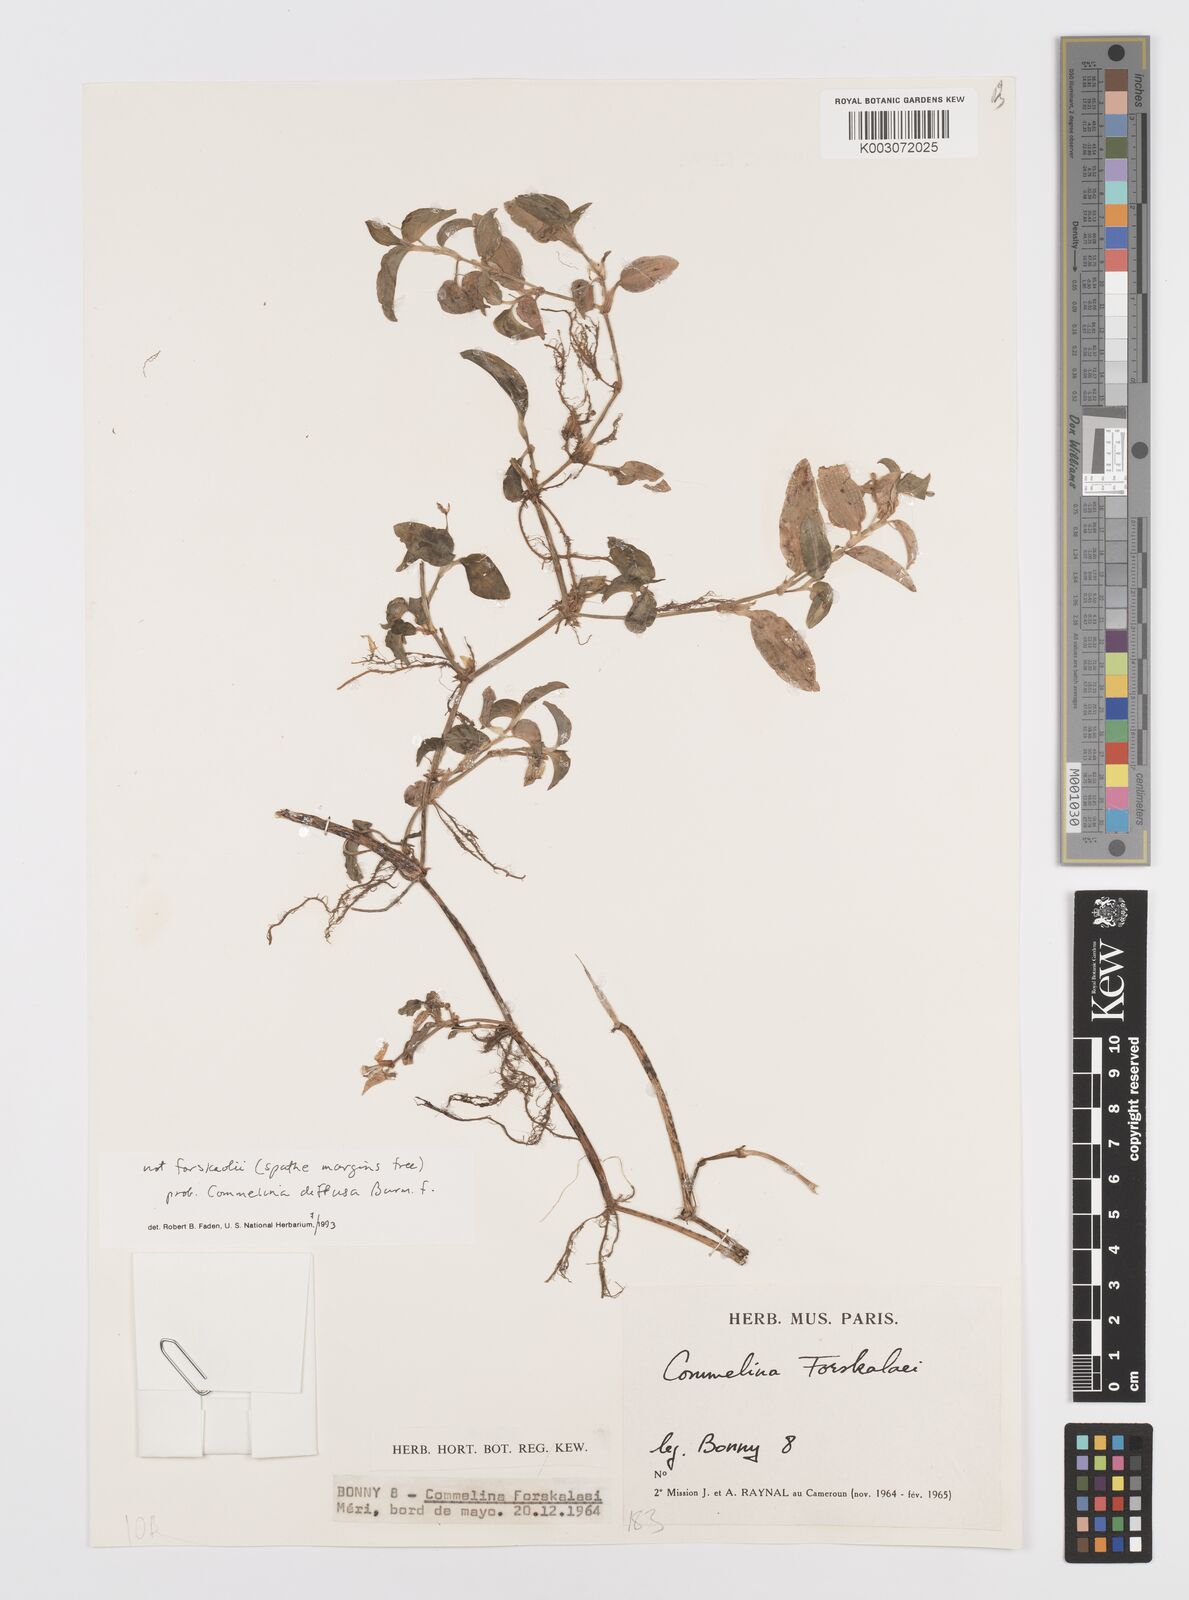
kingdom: Plantae
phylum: Tracheophyta
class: Liliopsida
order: Commelinales
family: Commelinaceae
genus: Commelina
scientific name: Commelina diffusa
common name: Climbing dayflower
